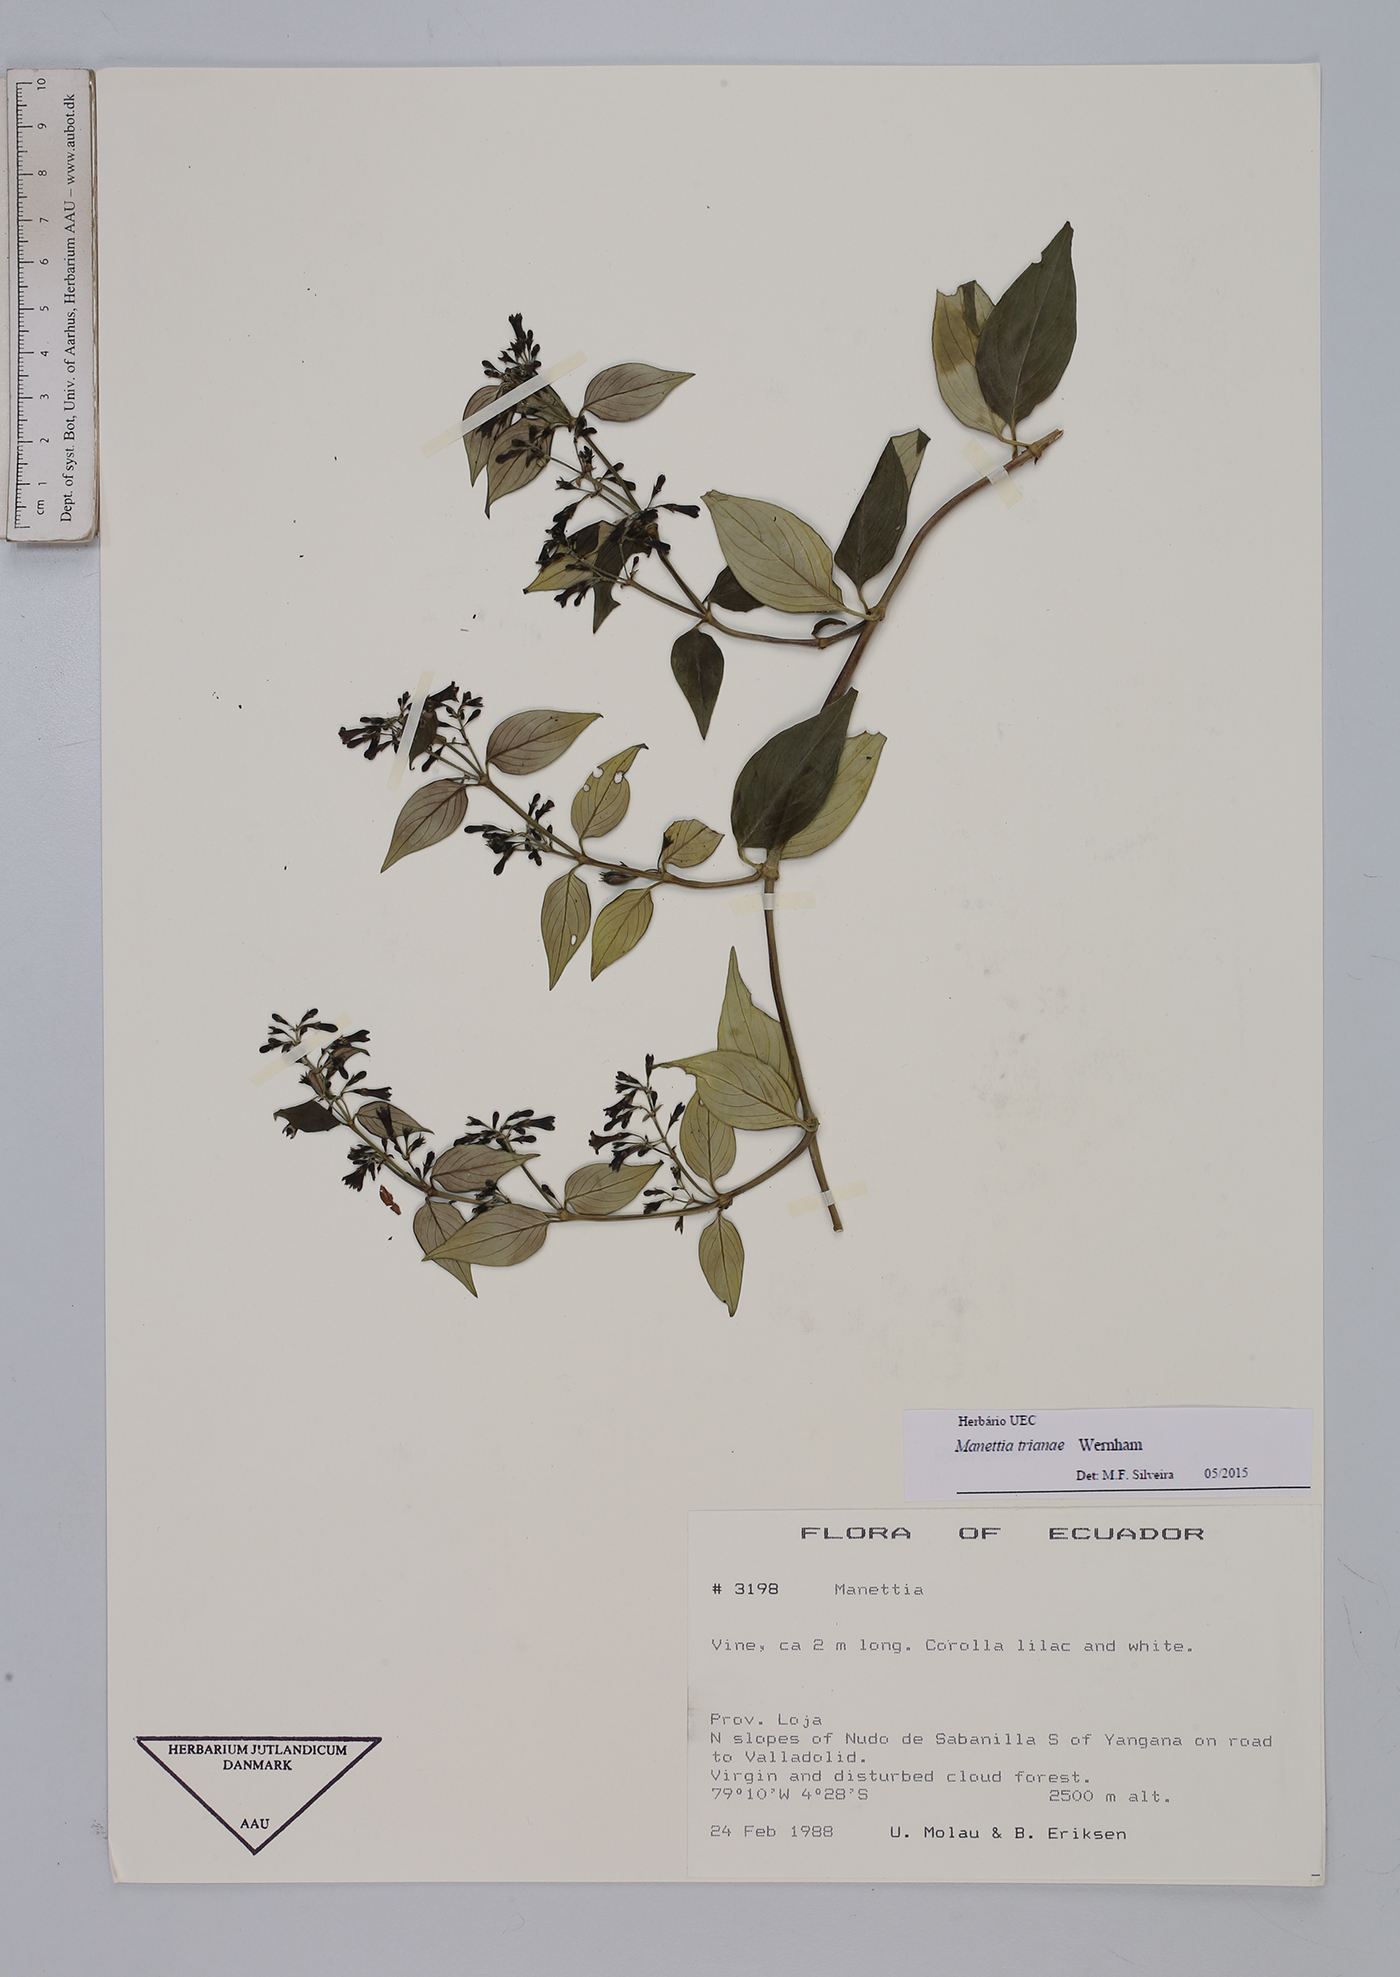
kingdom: Plantae
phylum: Tracheophyta
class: Magnoliopsida
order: Gentianales
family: Rubiaceae
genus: Manettia
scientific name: Manettia trianae
